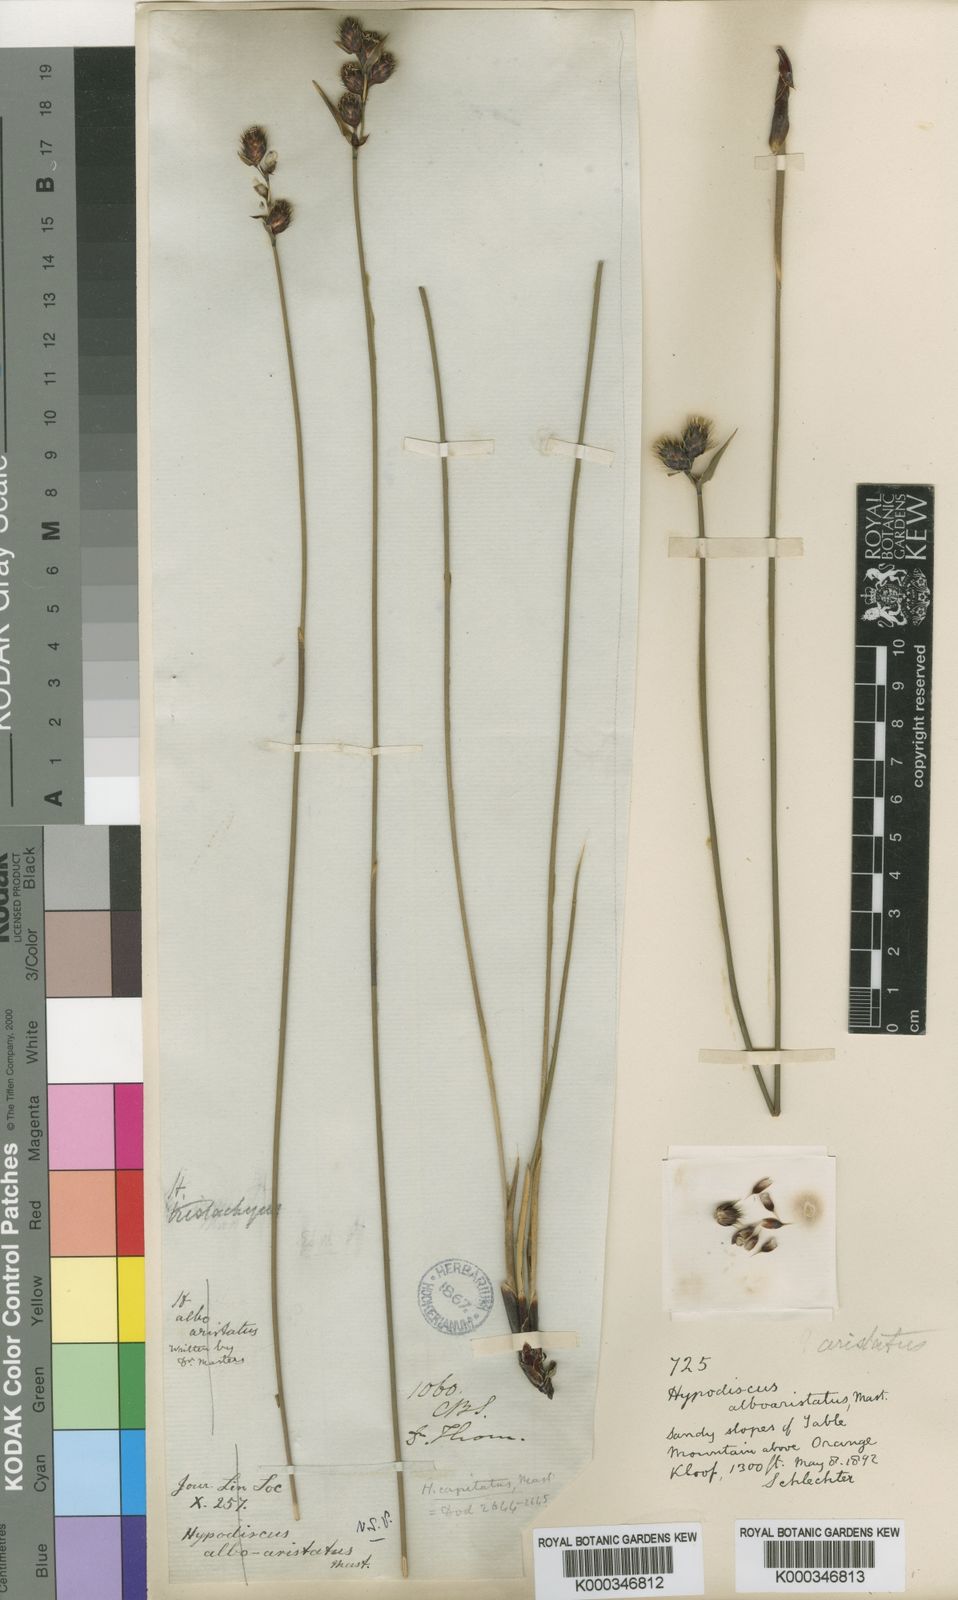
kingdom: Plantae
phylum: Tracheophyta
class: Liliopsida
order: Poales
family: Restionaceae
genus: Hypodiscus
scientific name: Hypodiscus alboaristatus
